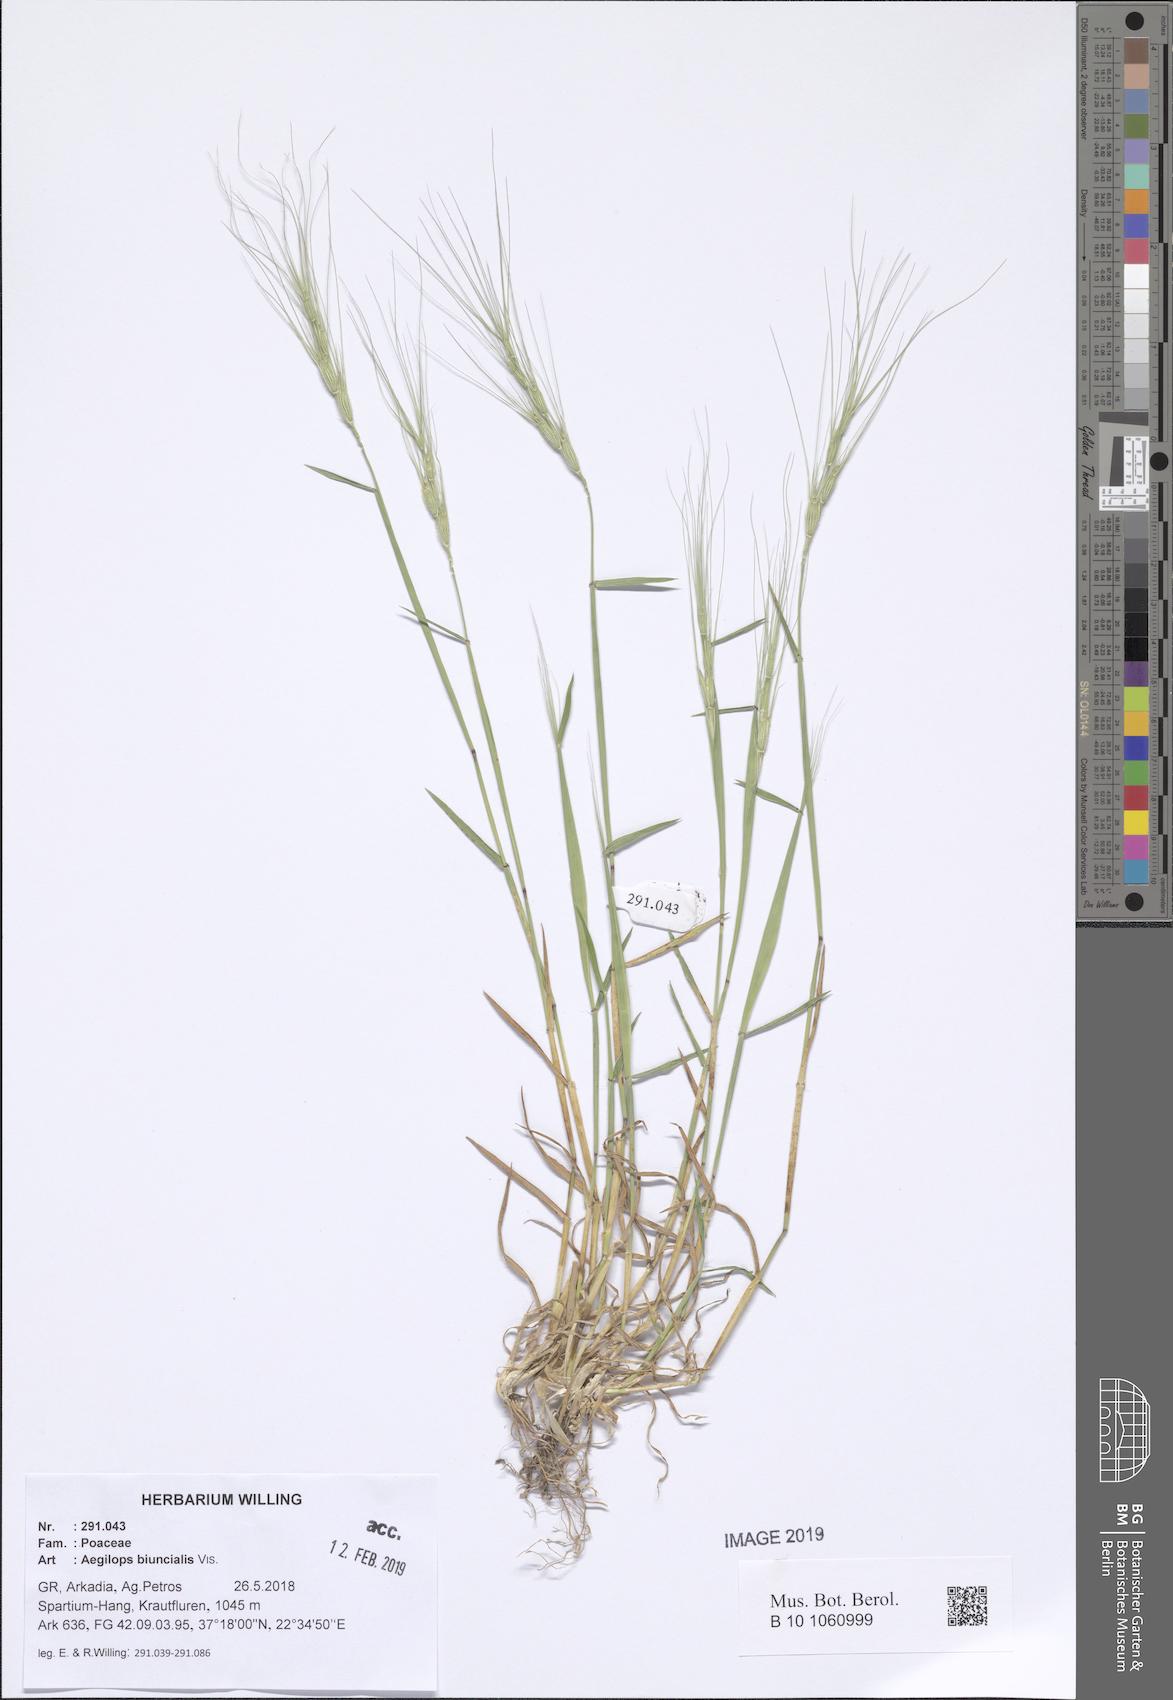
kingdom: Plantae
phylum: Tracheophyta
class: Liliopsida
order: Poales
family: Poaceae
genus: Aegilops
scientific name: Aegilops biuncialis
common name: Mediterranean aegilops
